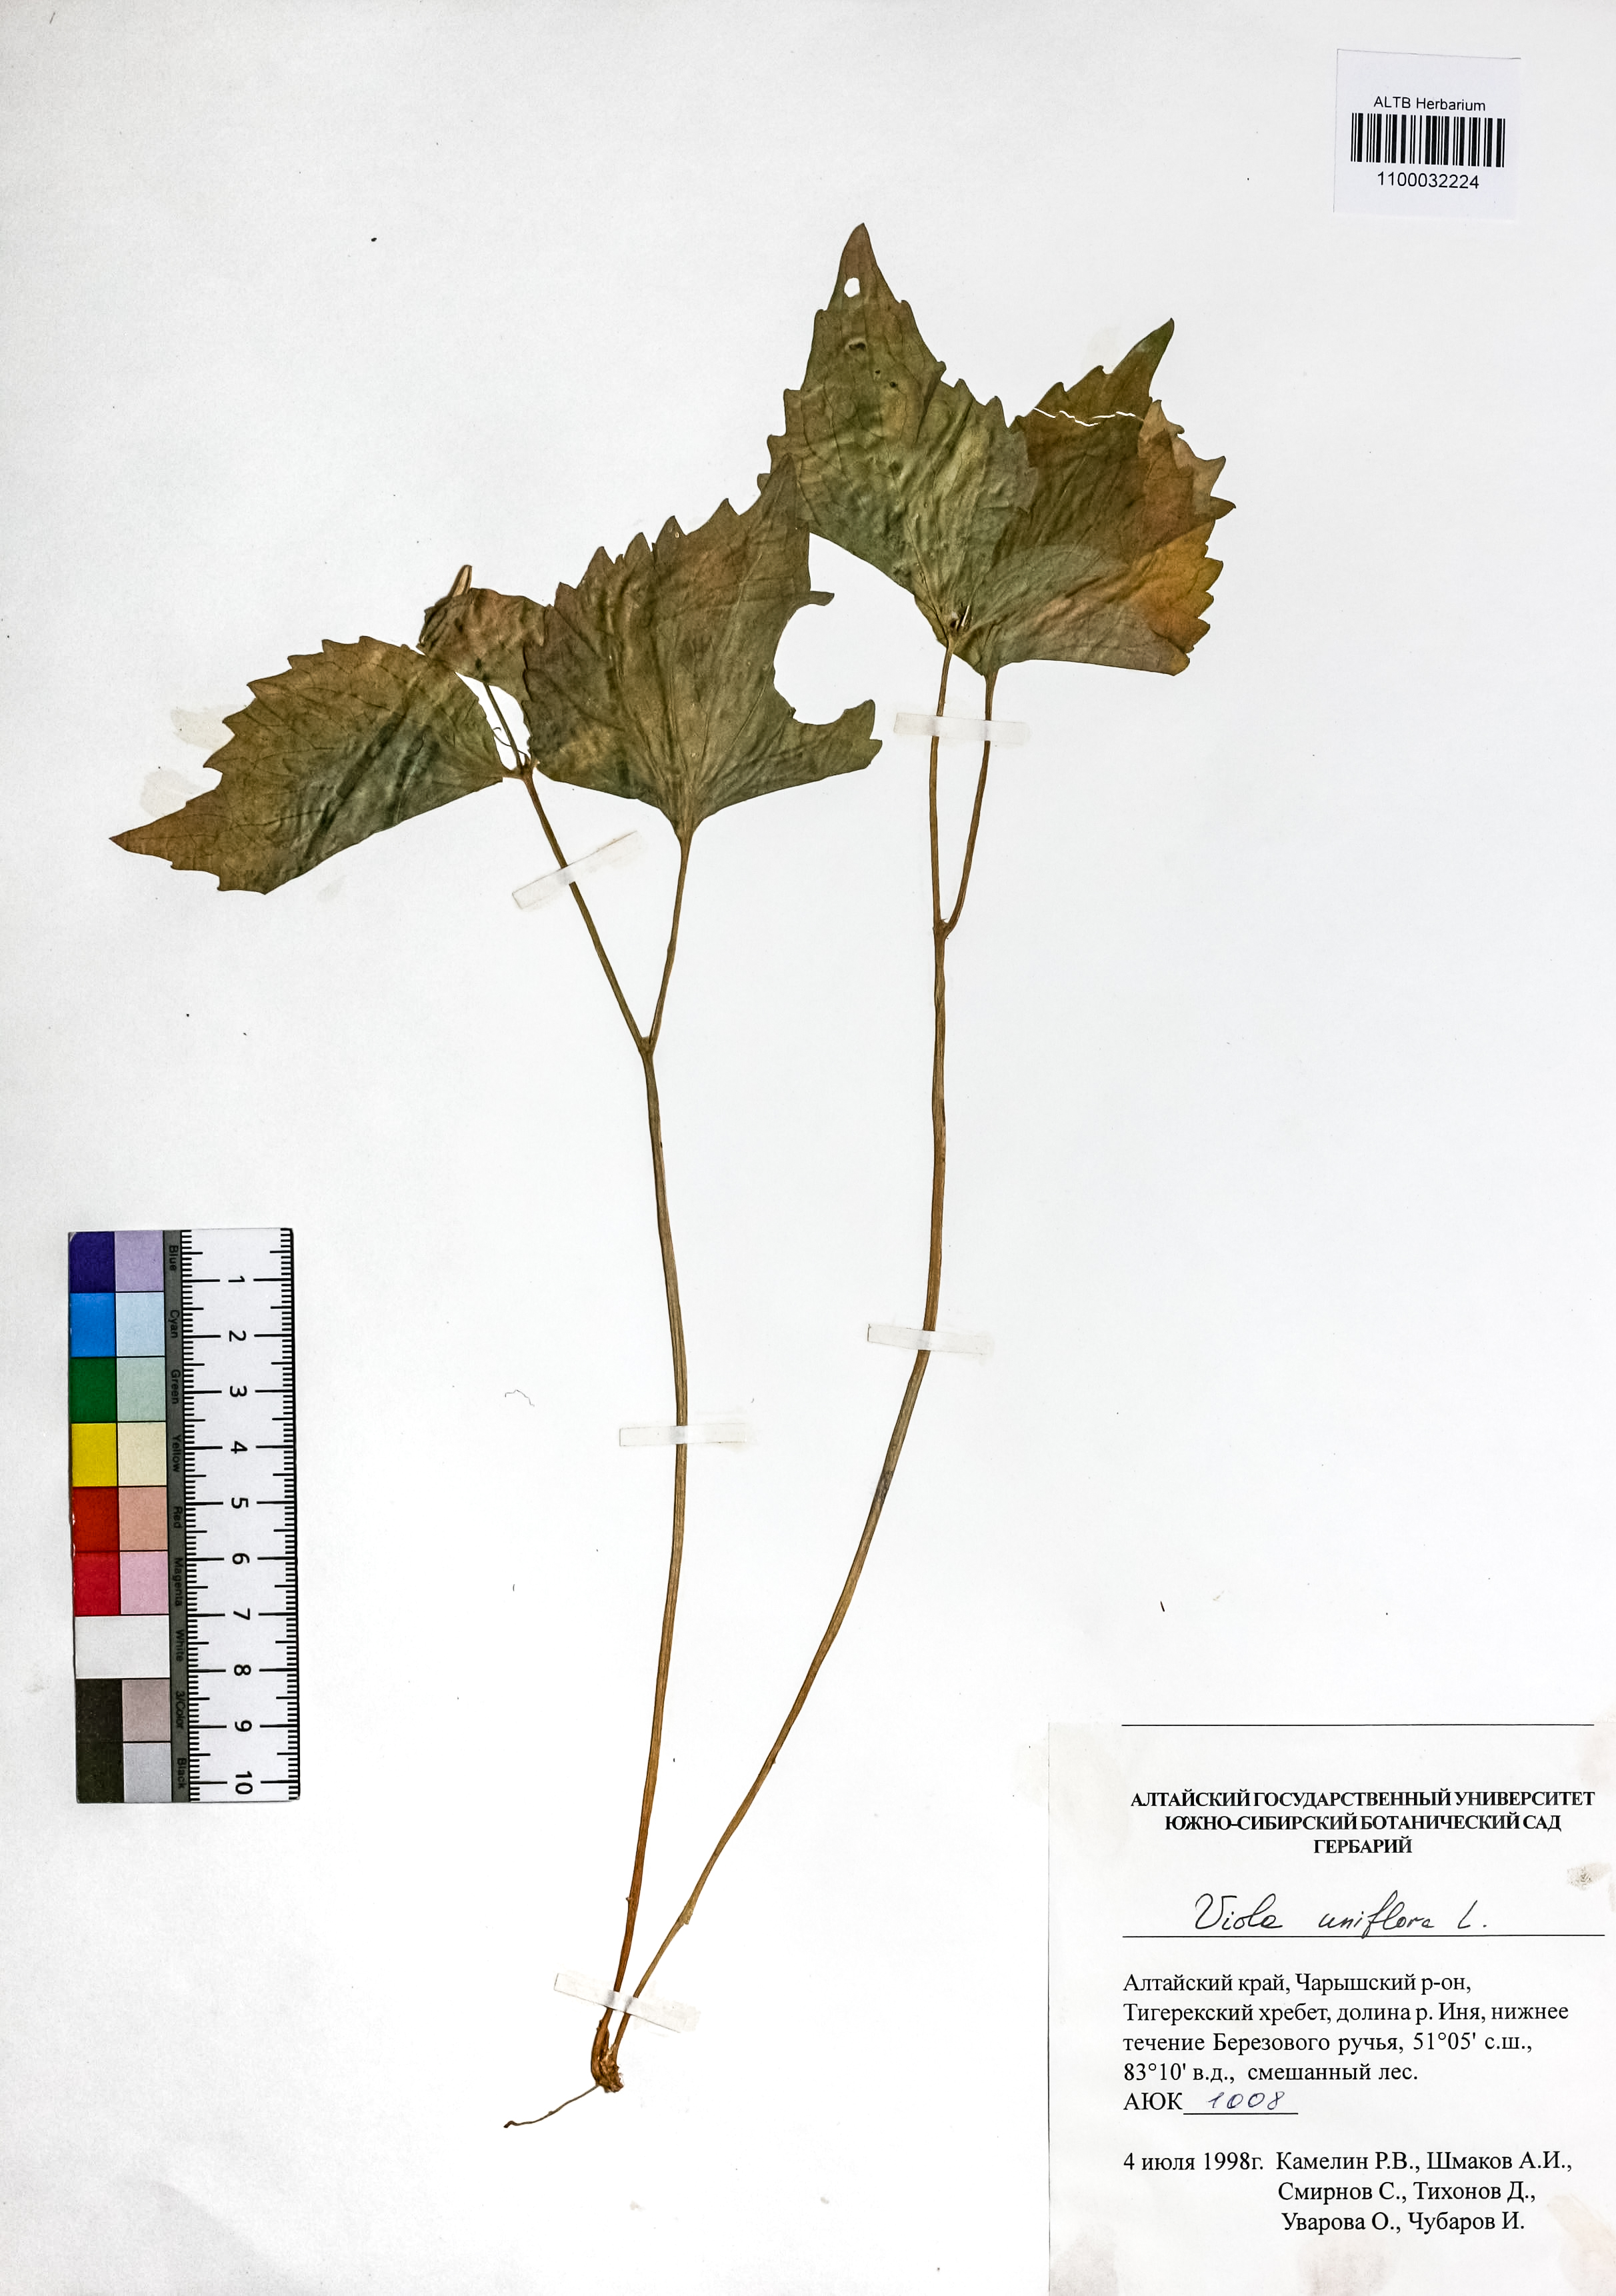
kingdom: Plantae
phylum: Tracheophyta
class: Magnoliopsida
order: Malpighiales
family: Violaceae
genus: Viola
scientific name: Viola uniflora
